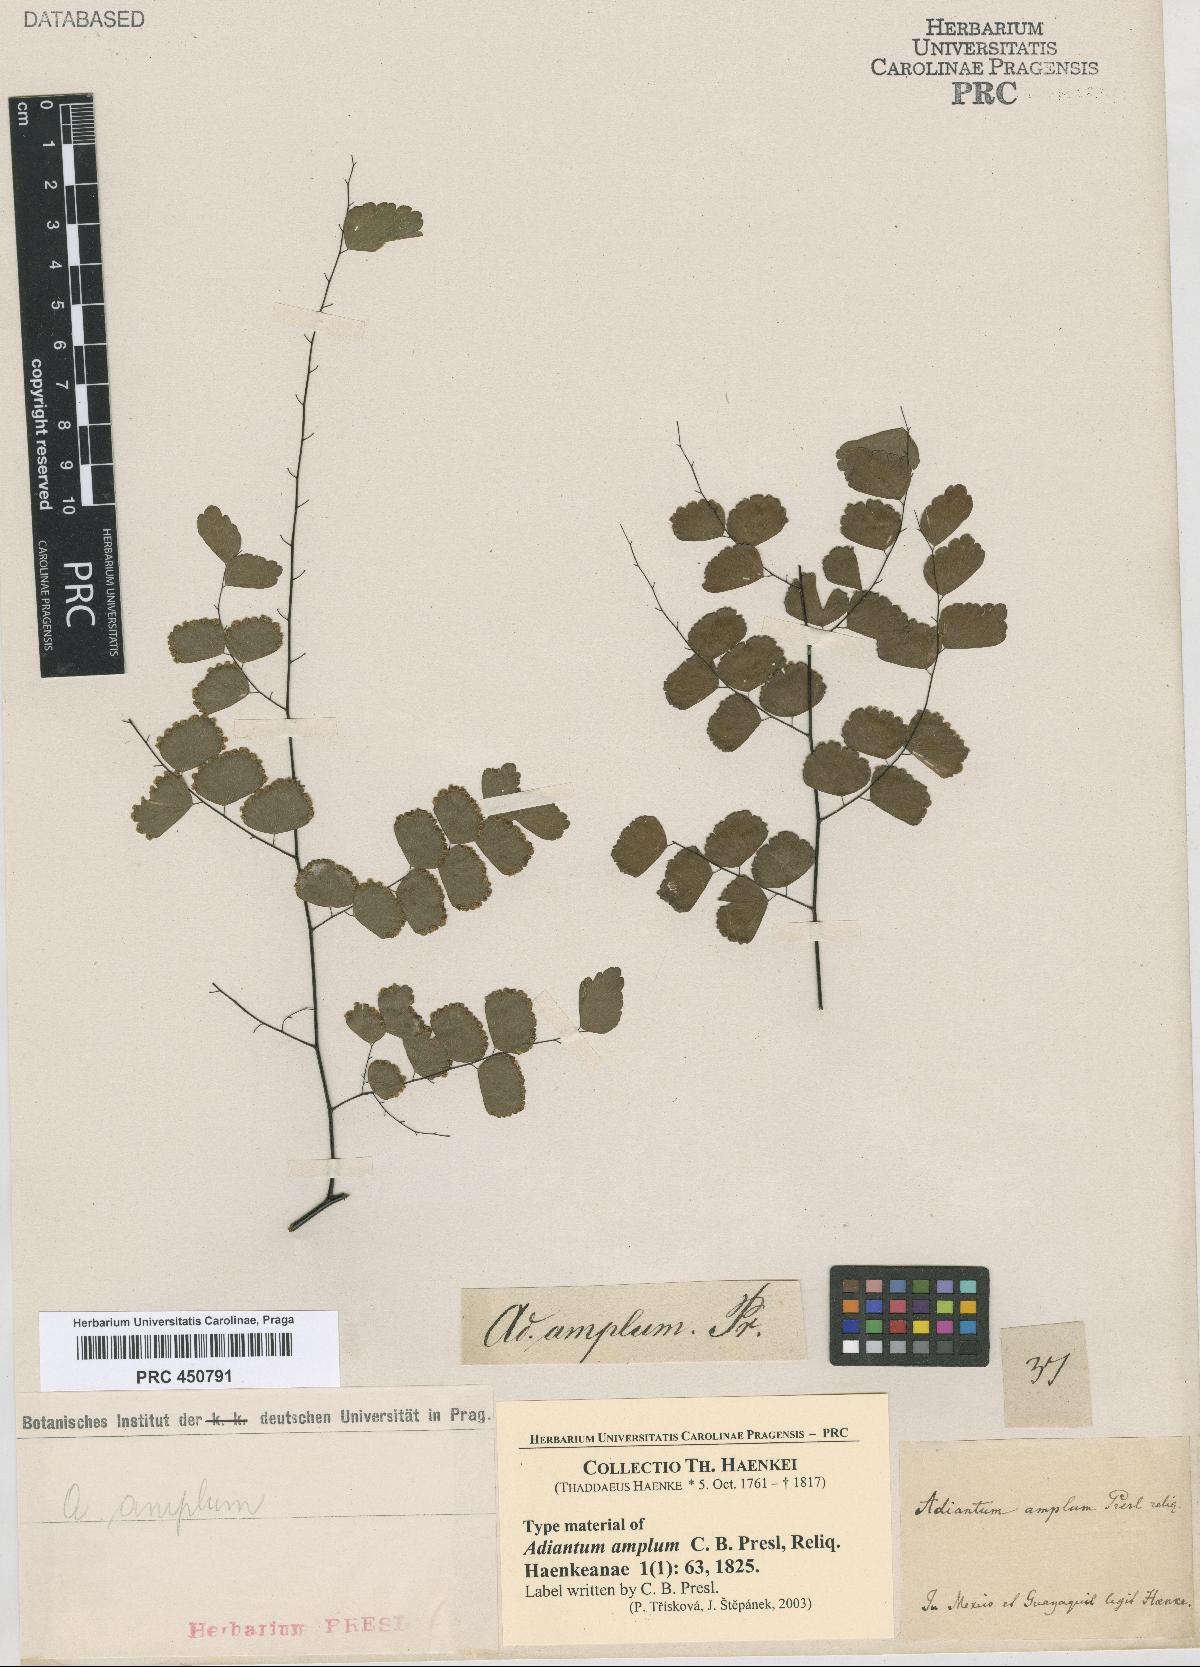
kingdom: Plantae
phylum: Tracheophyta
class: Polypodiopsida
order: Polypodiales
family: Pteridaceae
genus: Adiantum
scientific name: Adiantum amplum
